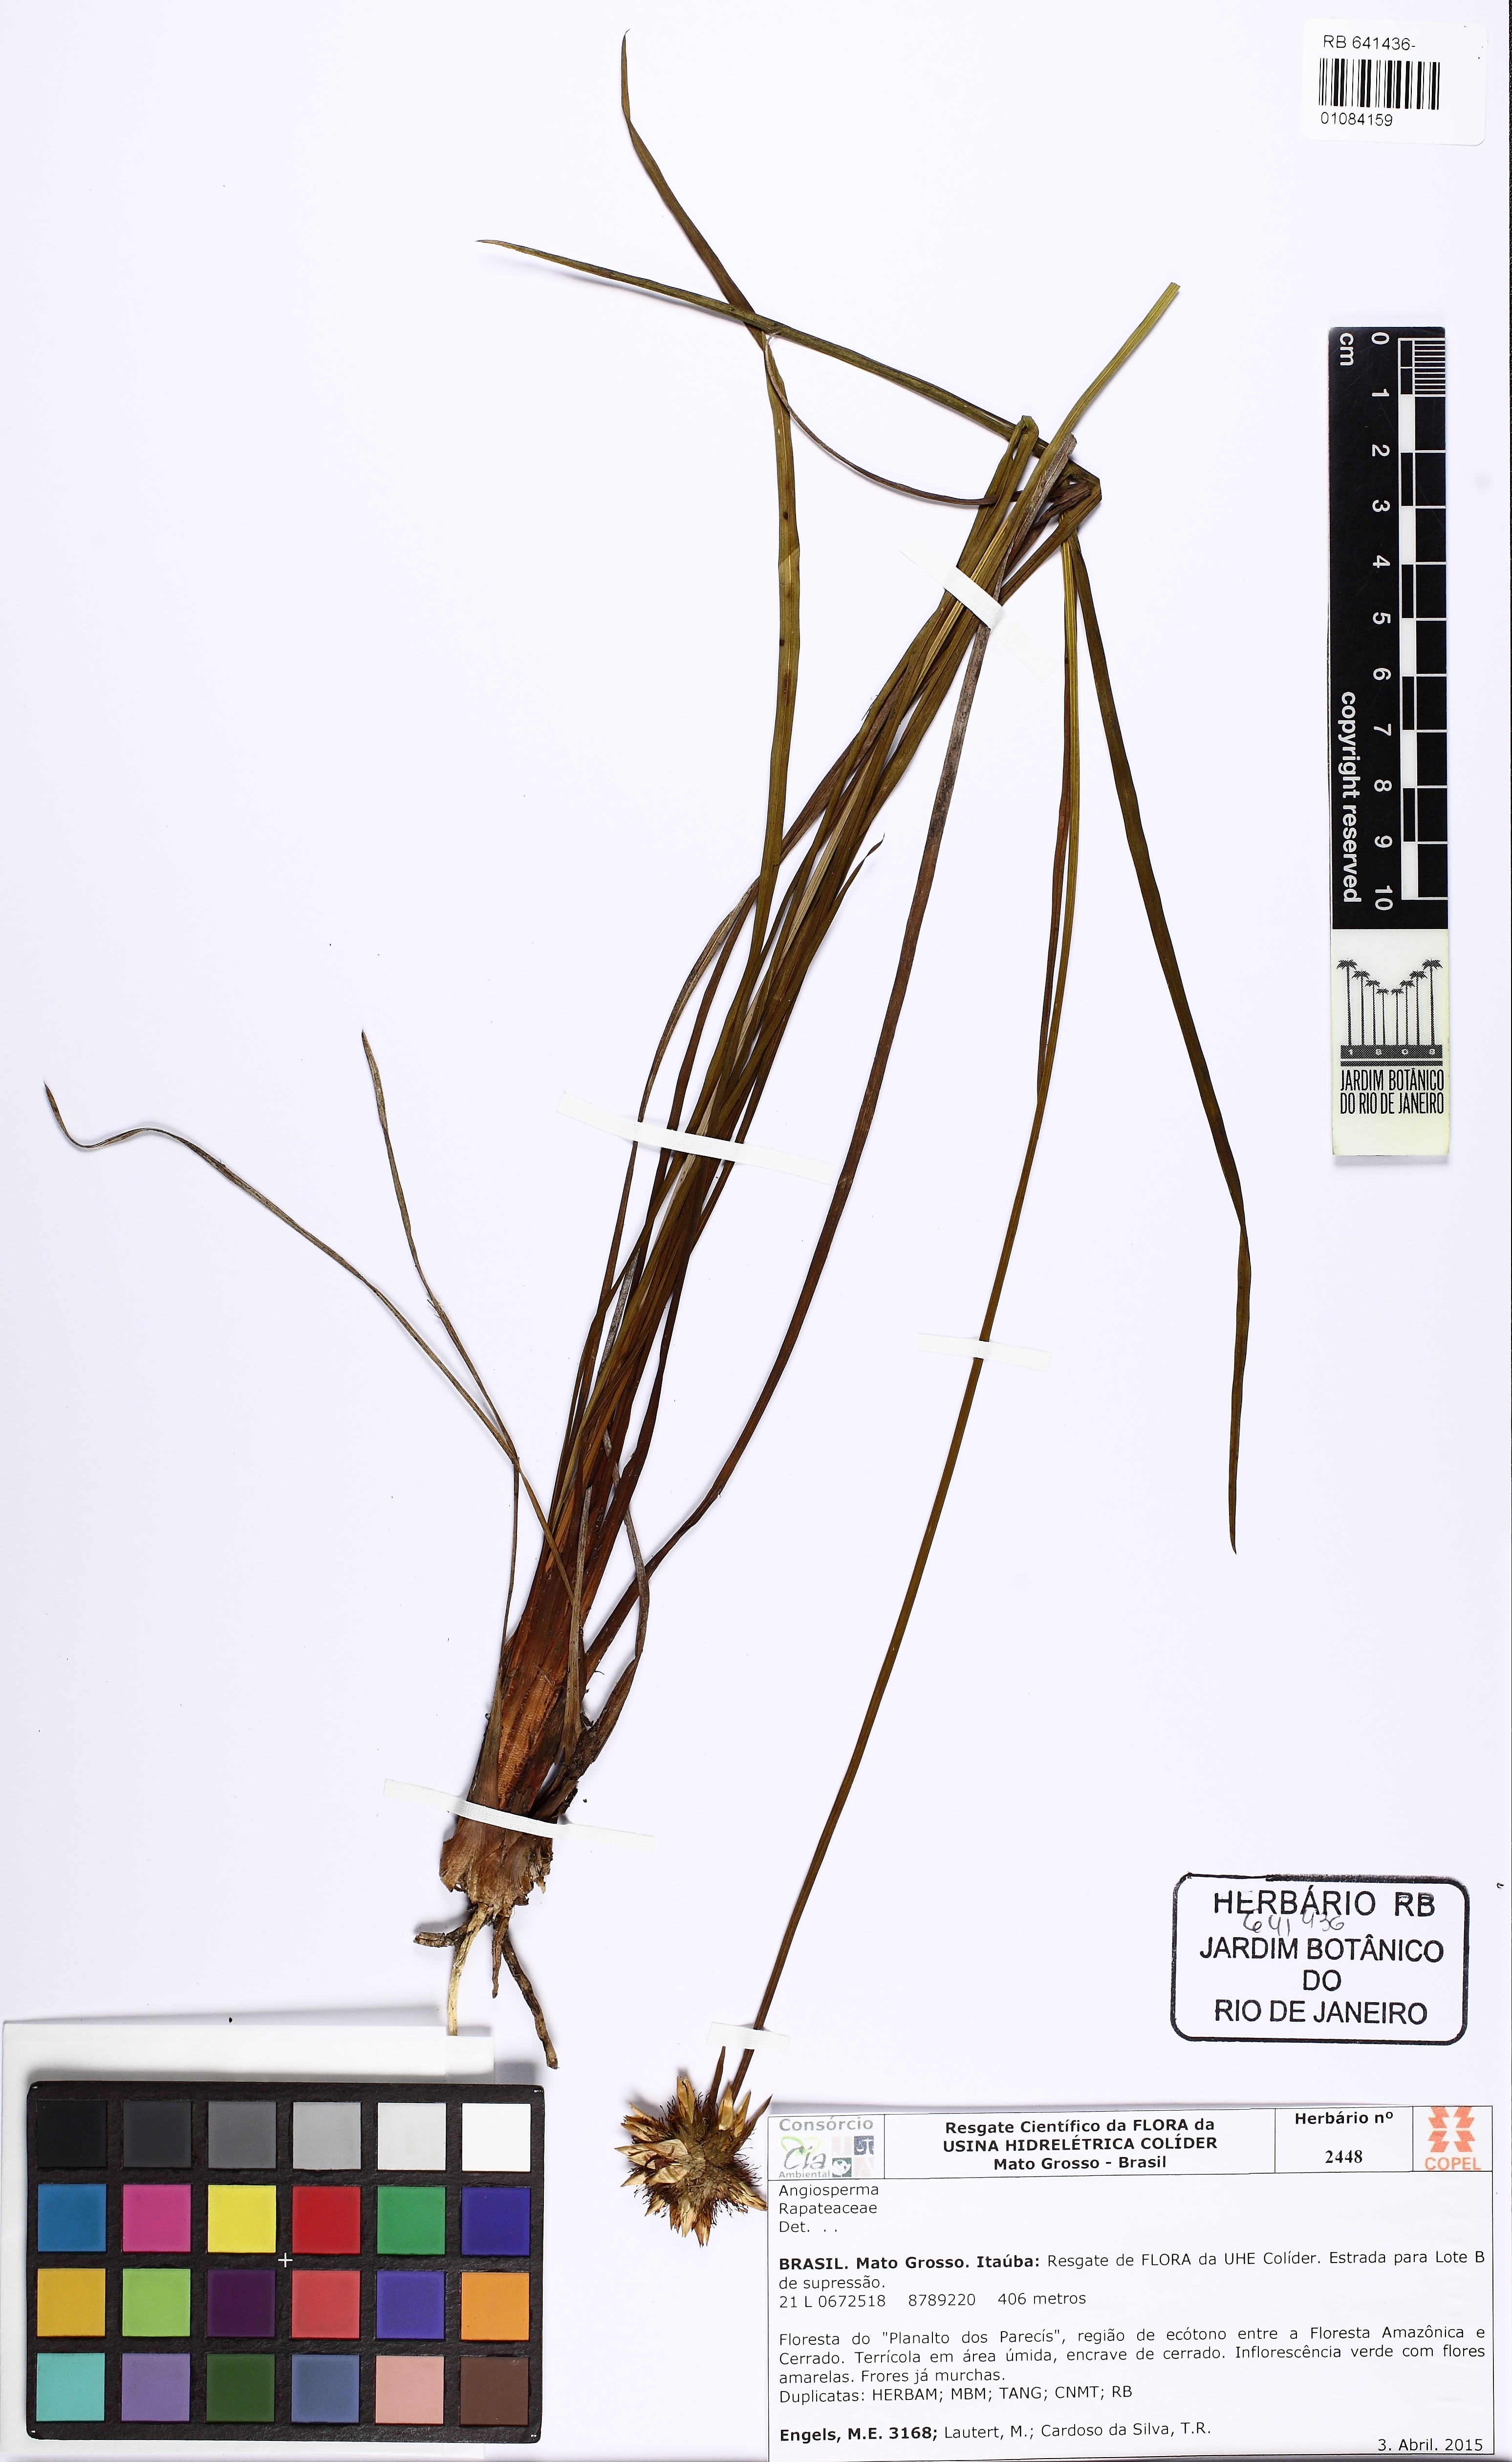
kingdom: Plantae
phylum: Tracheophyta
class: Liliopsida
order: Poales
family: Rapateaceae
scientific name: Rapateaceae
